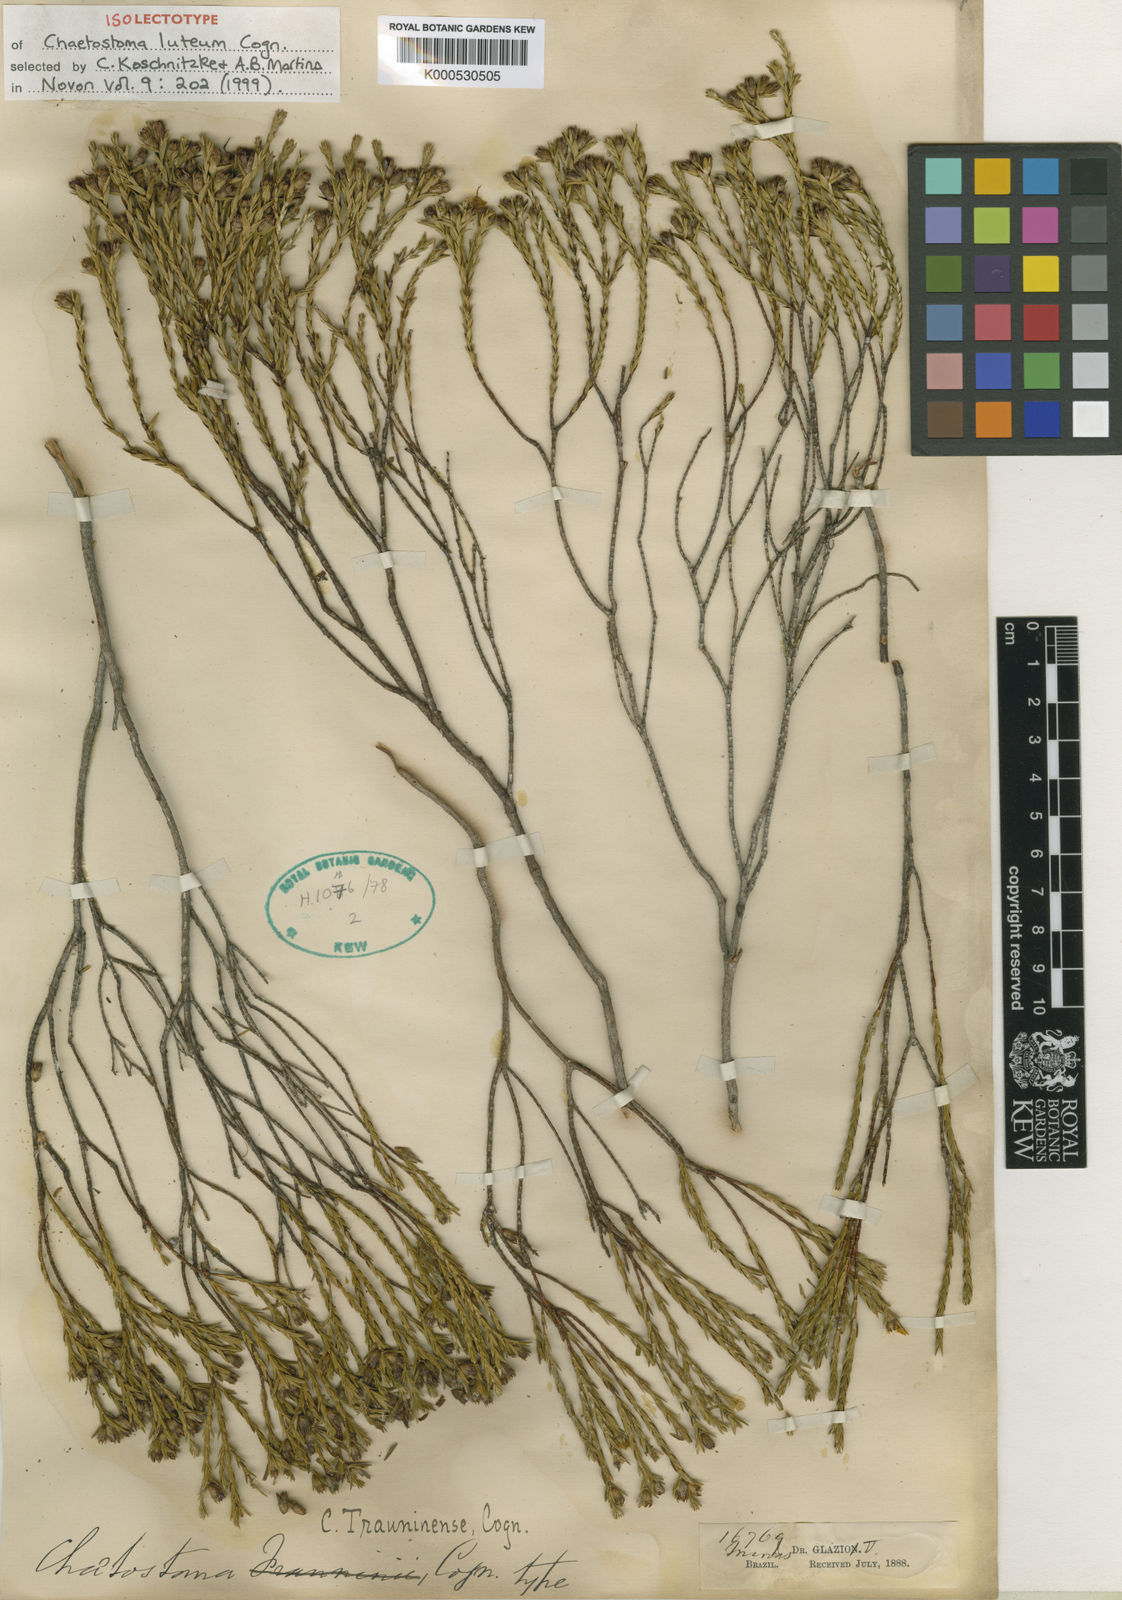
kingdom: Plantae
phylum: Tracheophyta
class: Magnoliopsida
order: Myrtales
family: Melastomataceae
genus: Microlicia
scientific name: Microlicia cupressina
